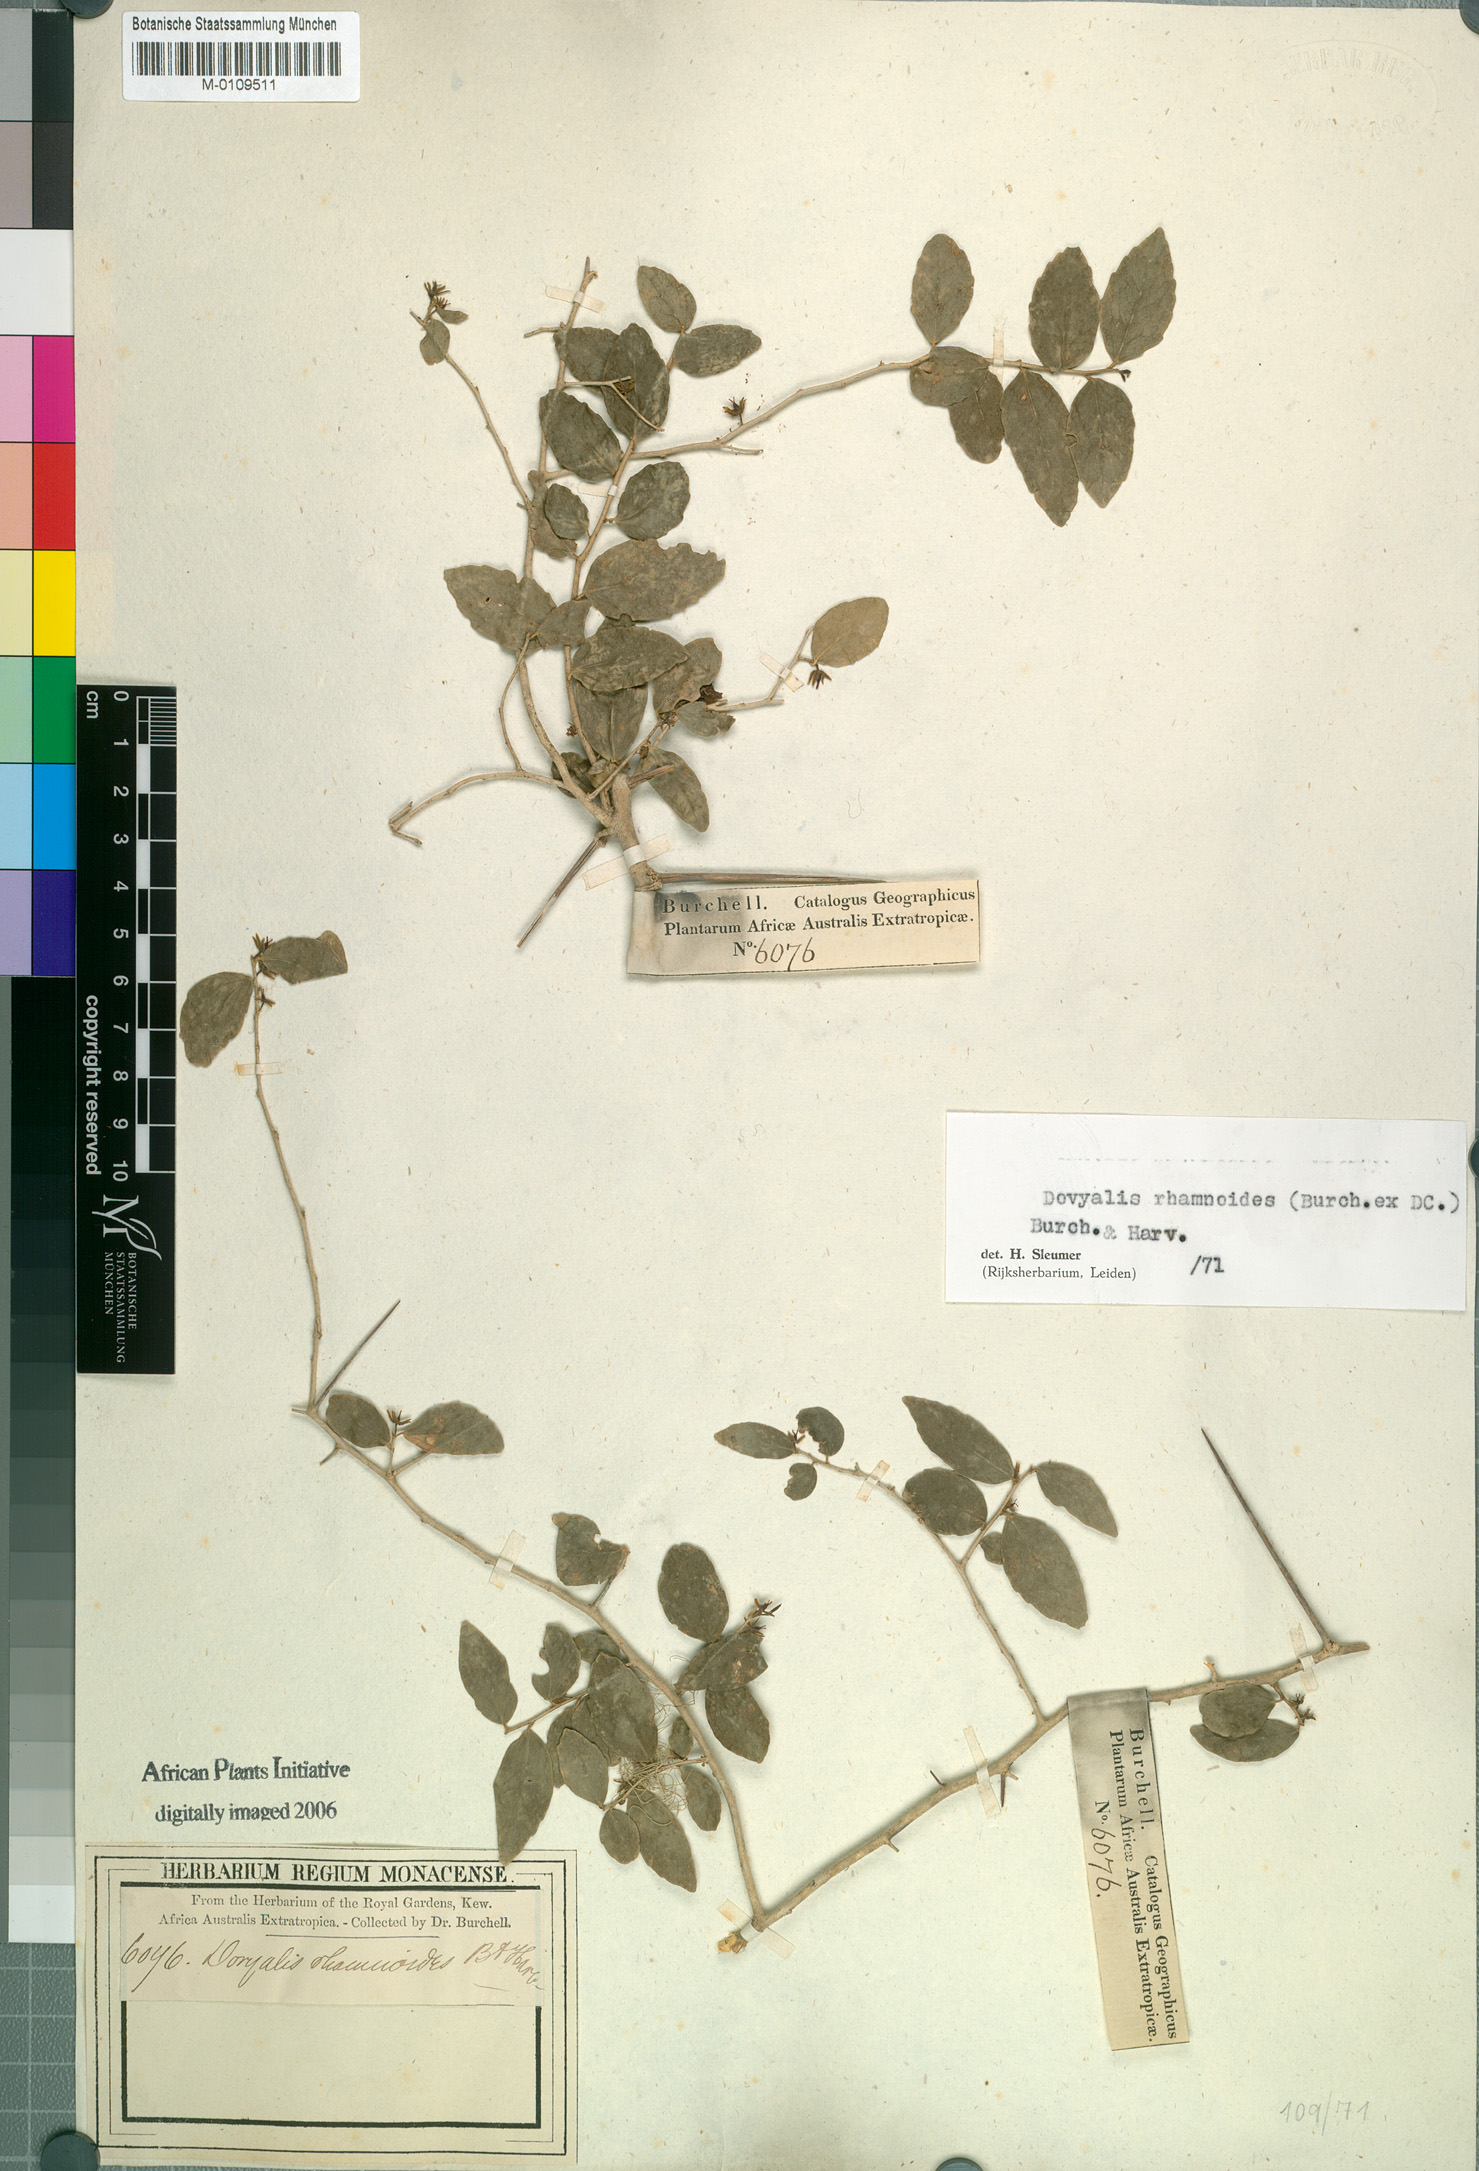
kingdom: Plantae
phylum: Tracheophyta
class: Magnoliopsida
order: Malpighiales
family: Salicaceae
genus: Dovyalis
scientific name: Dovyalis rhamnoides
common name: Sourberry
